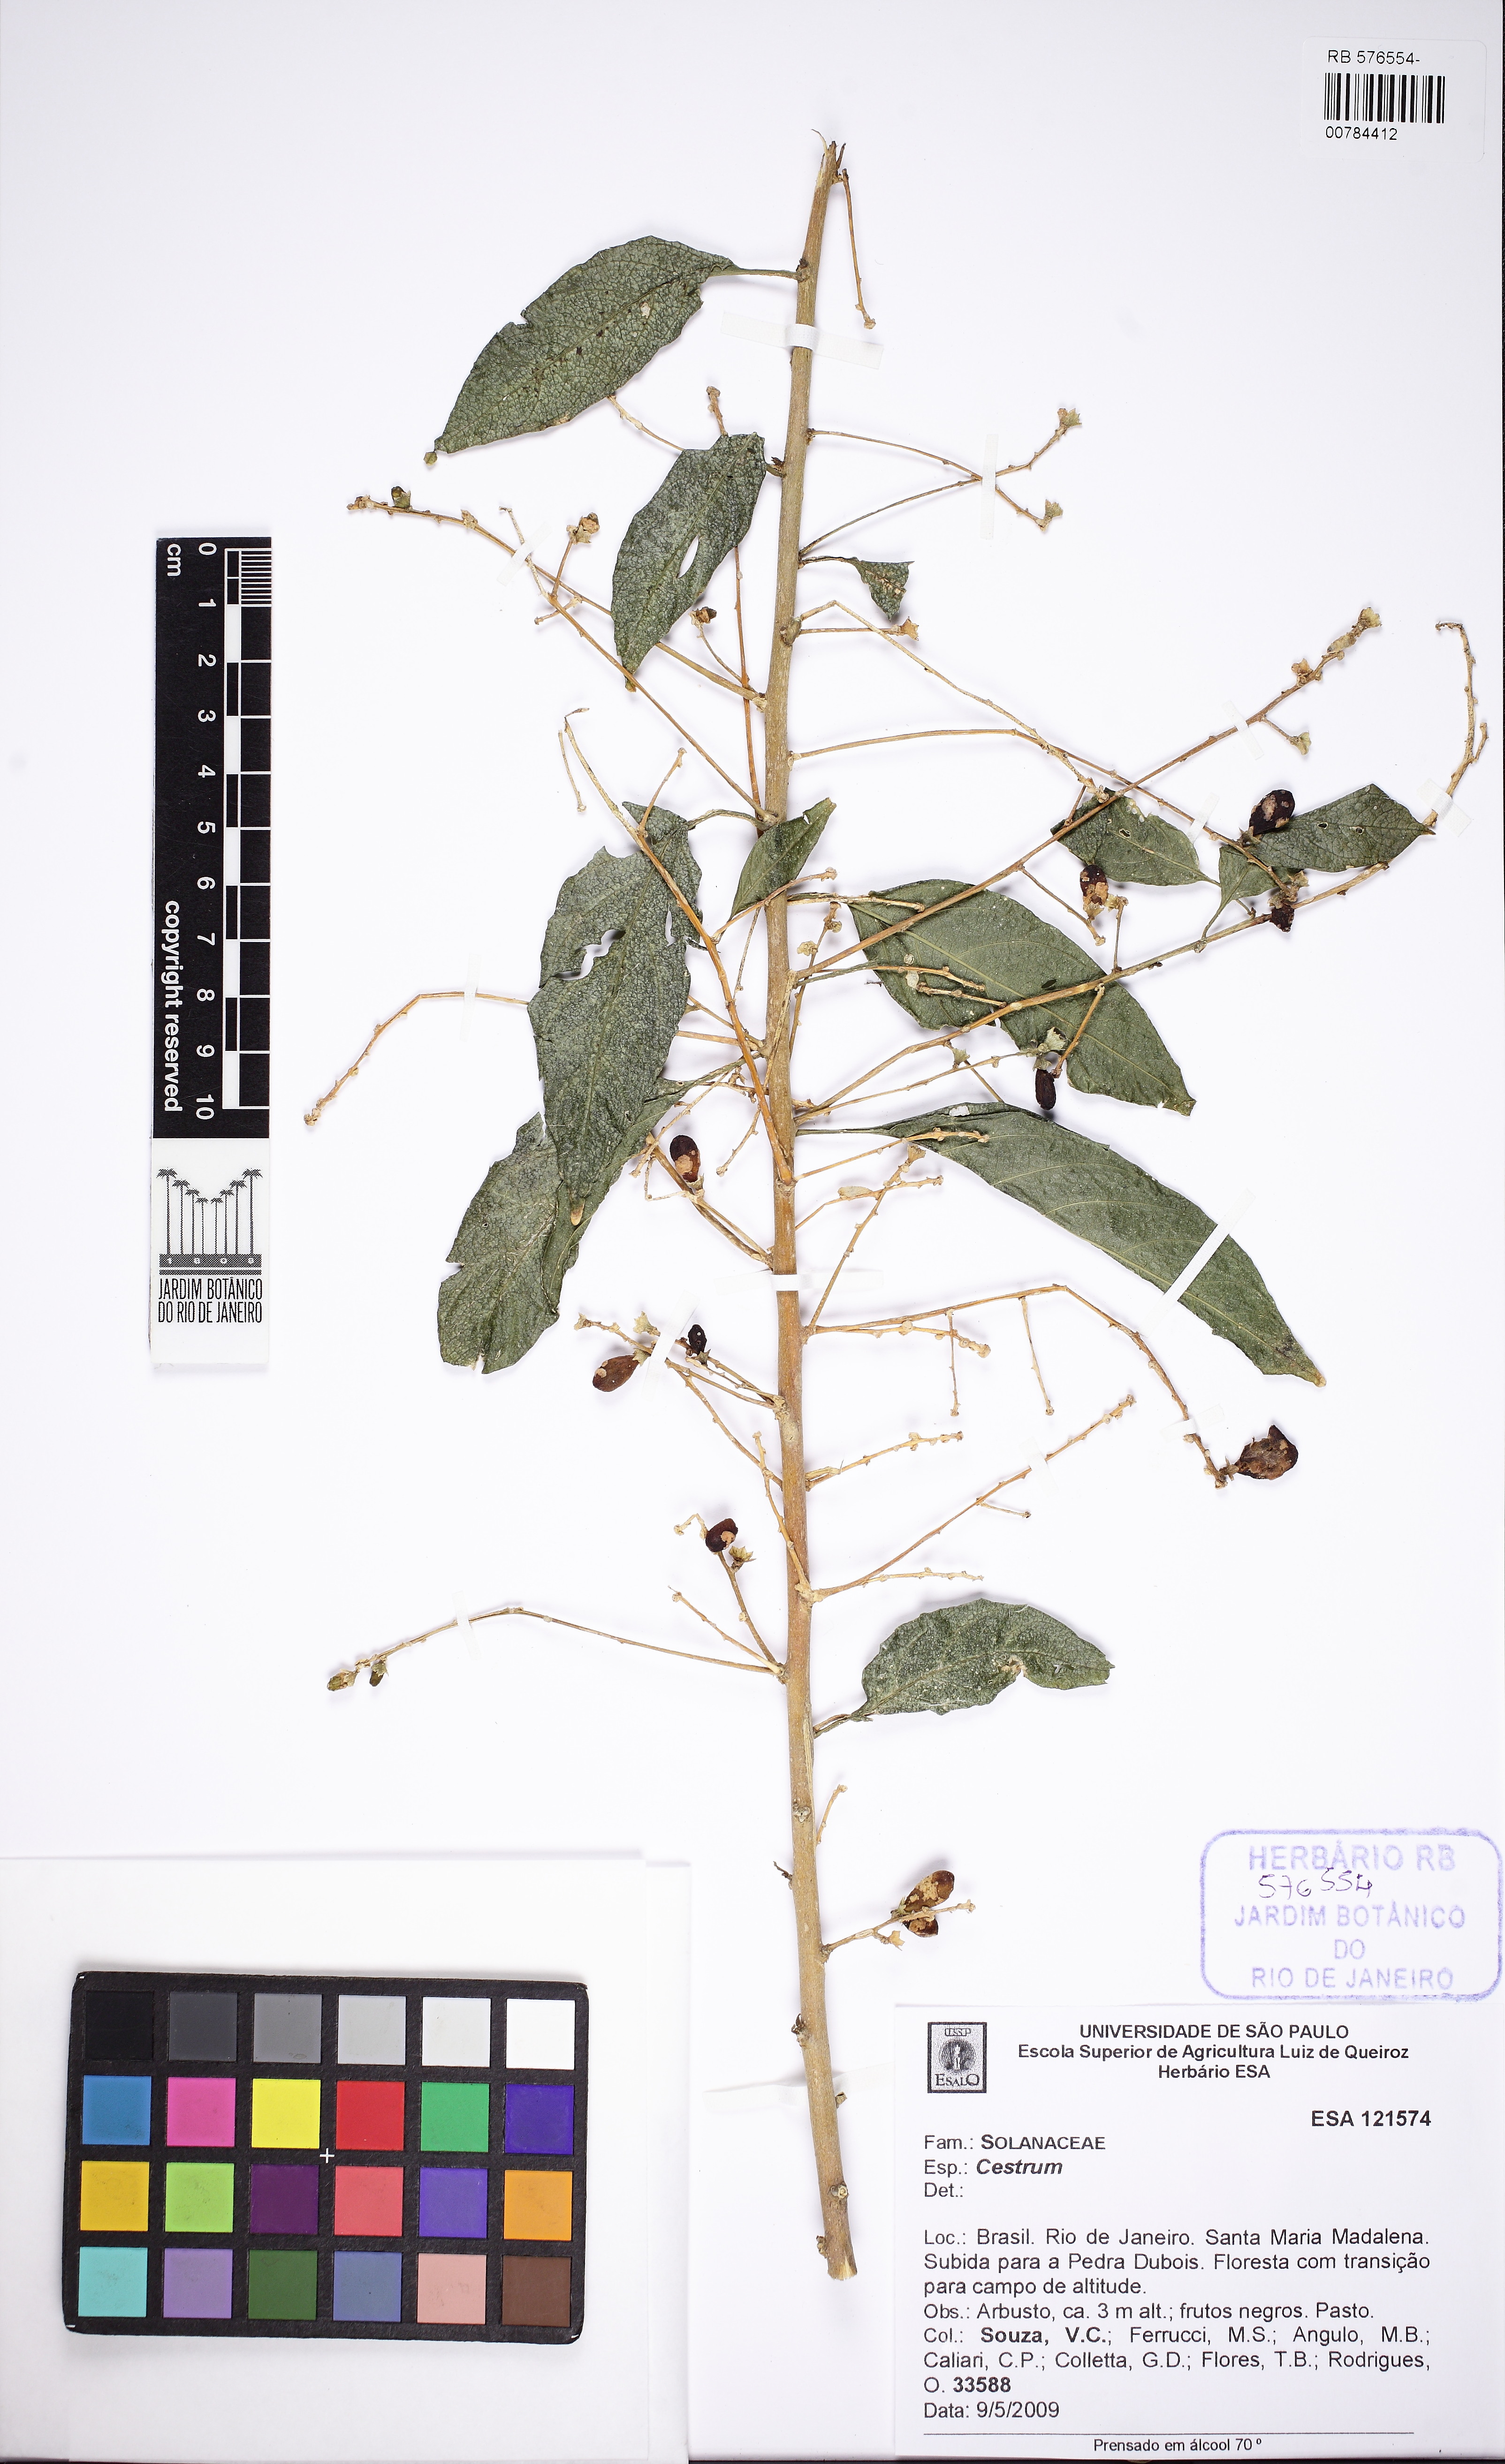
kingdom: Plantae
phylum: Tracheophyta
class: Magnoliopsida
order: Solanales
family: Solanaceae
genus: Cestrum
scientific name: Cestrum
